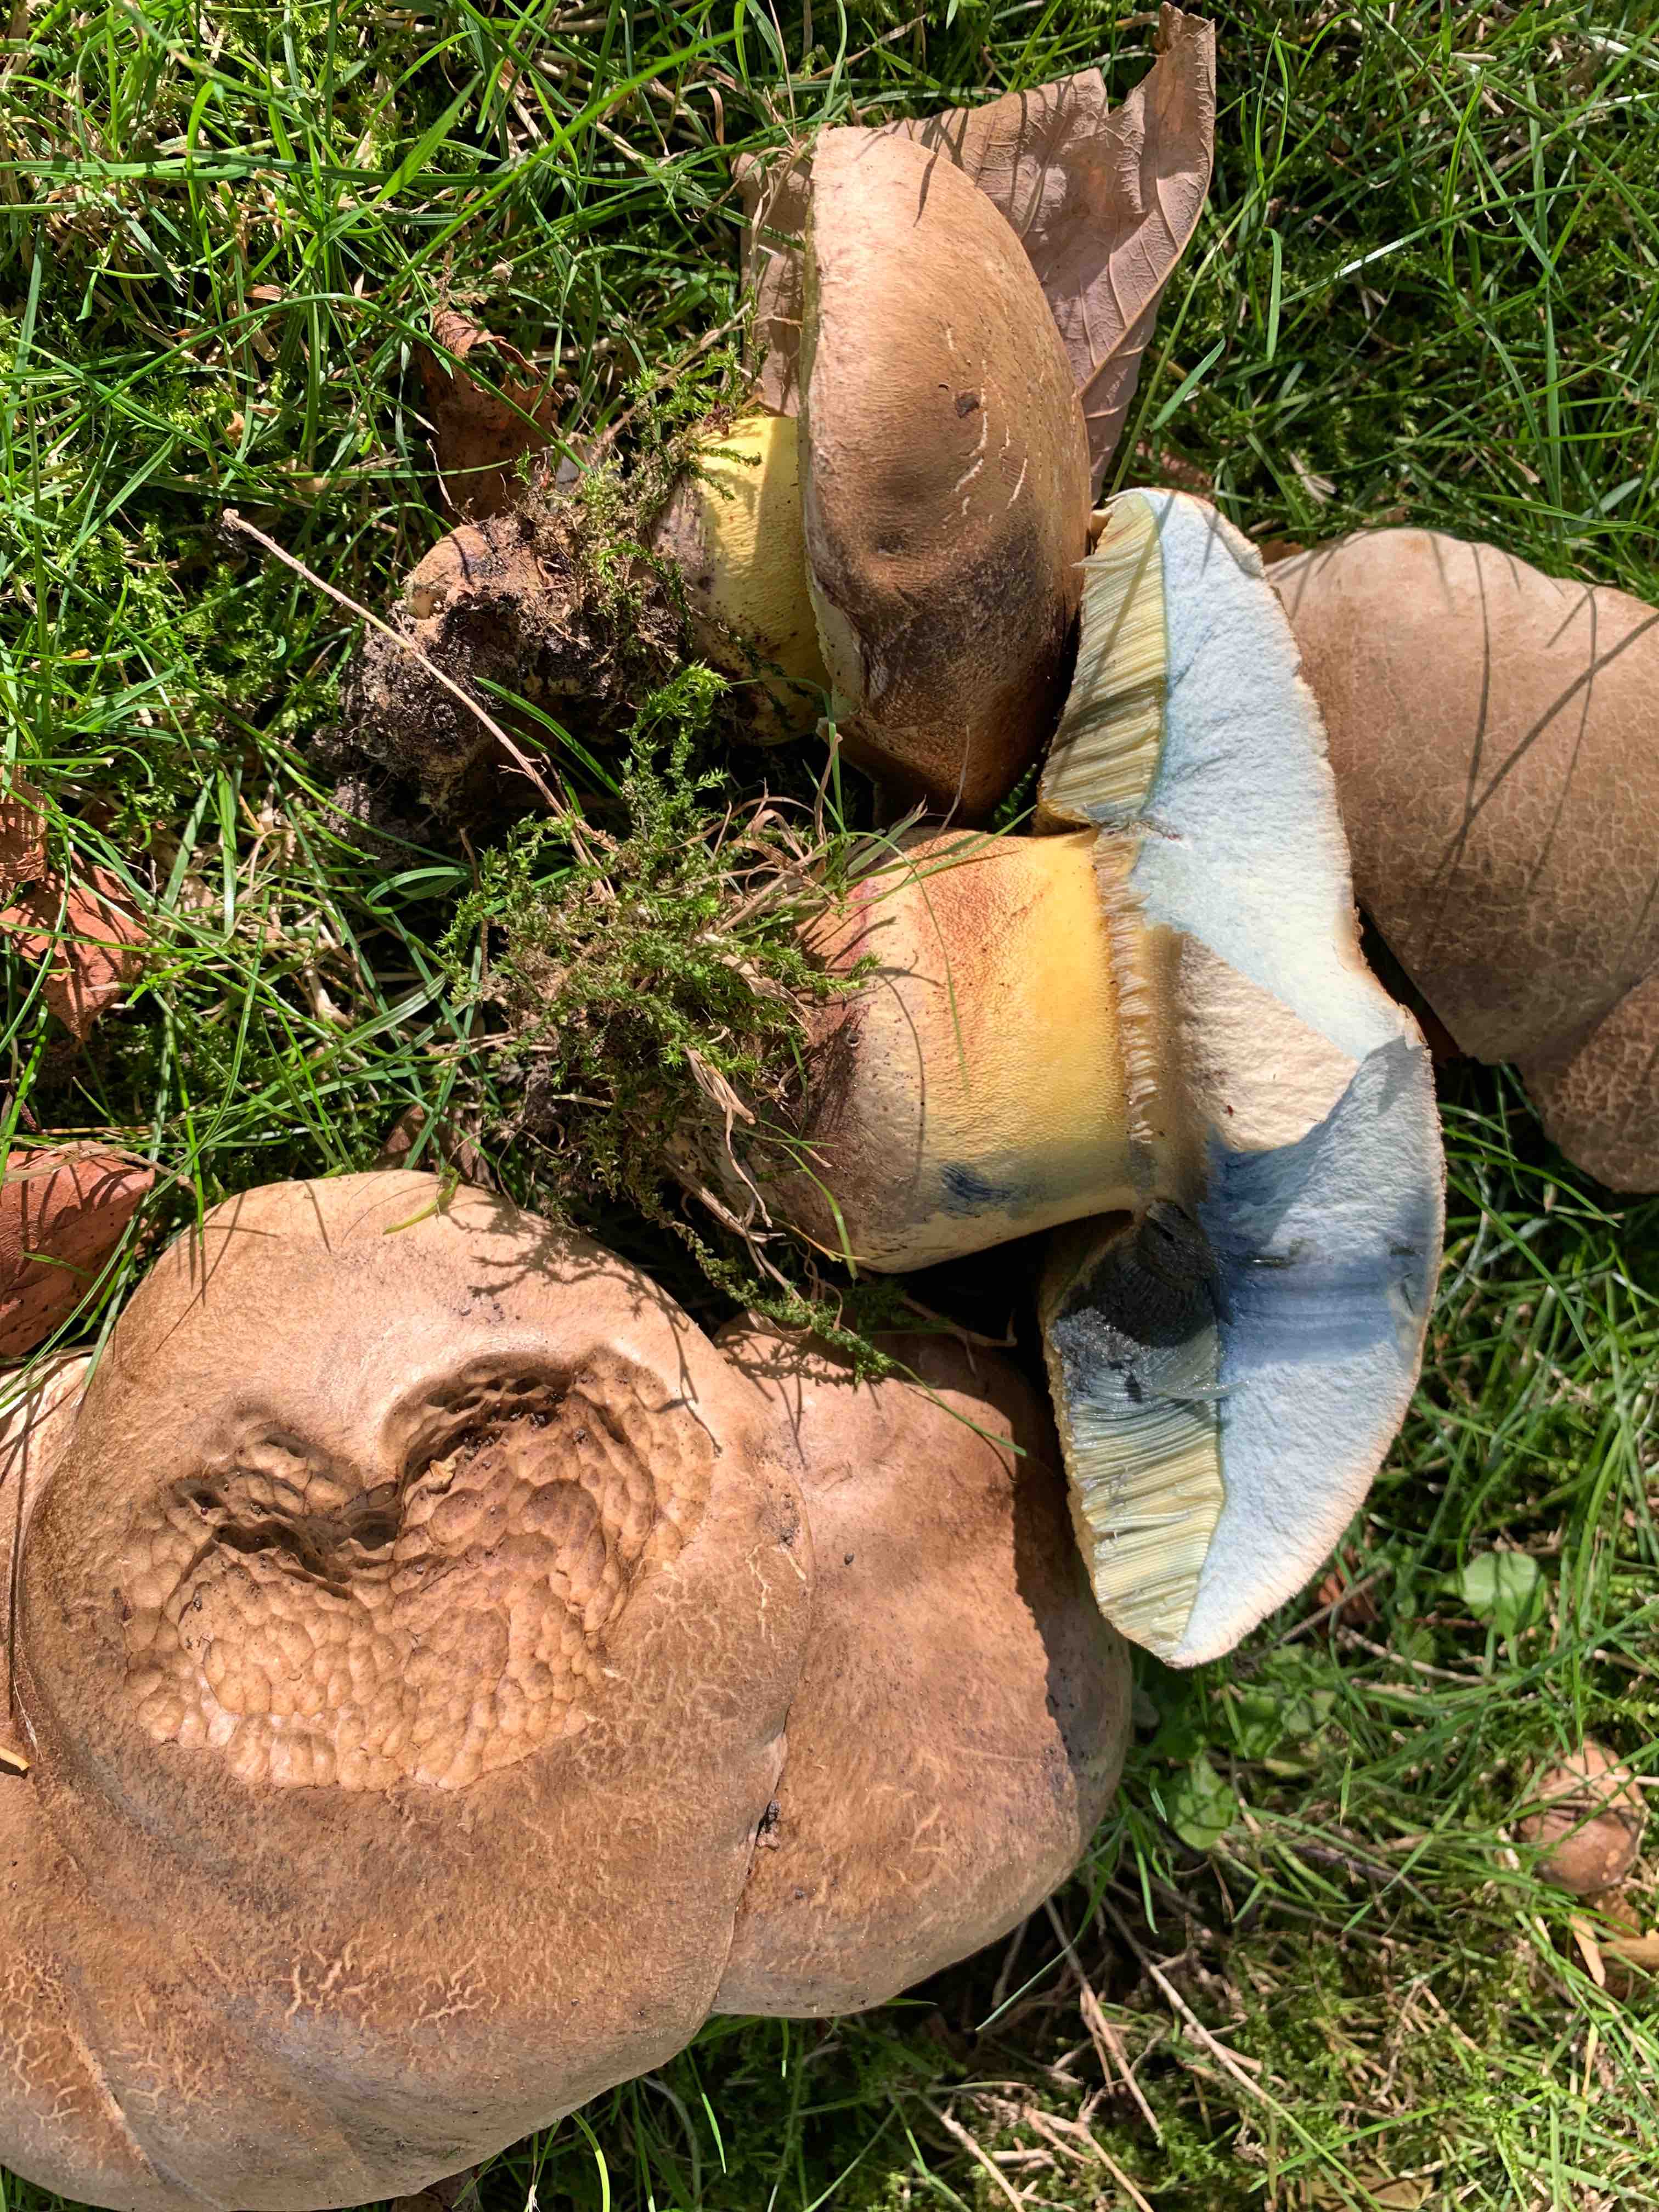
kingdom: Fungi
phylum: Basidiomycota
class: Agaricomycetes
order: Boletales
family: Boletaceae
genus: Caloboletus
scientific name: Caloboletus radicans
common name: rod-rørhat
